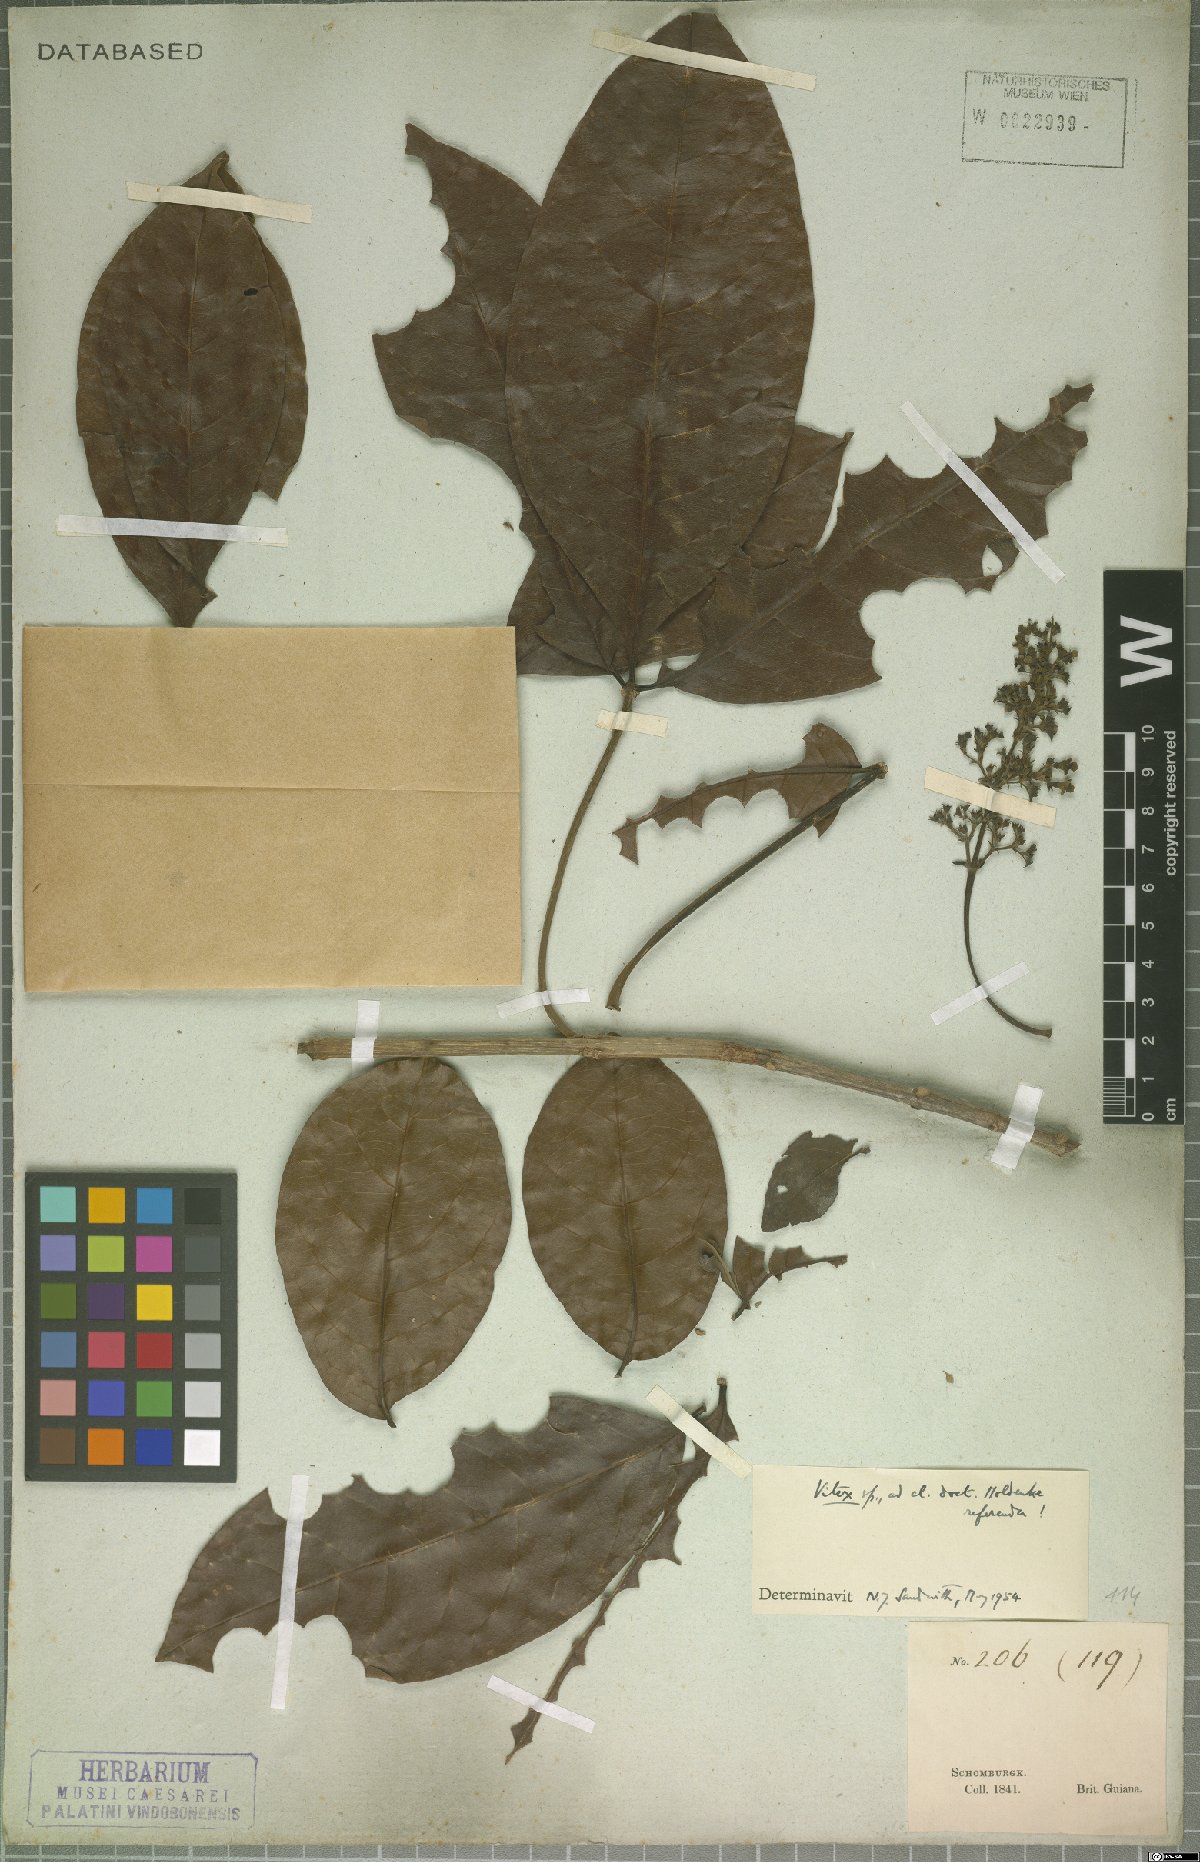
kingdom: Plantae
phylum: Tracheophyta
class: Magnoliopsida
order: Lamiales
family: Lamiaceae
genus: Vitex
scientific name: Vitex
